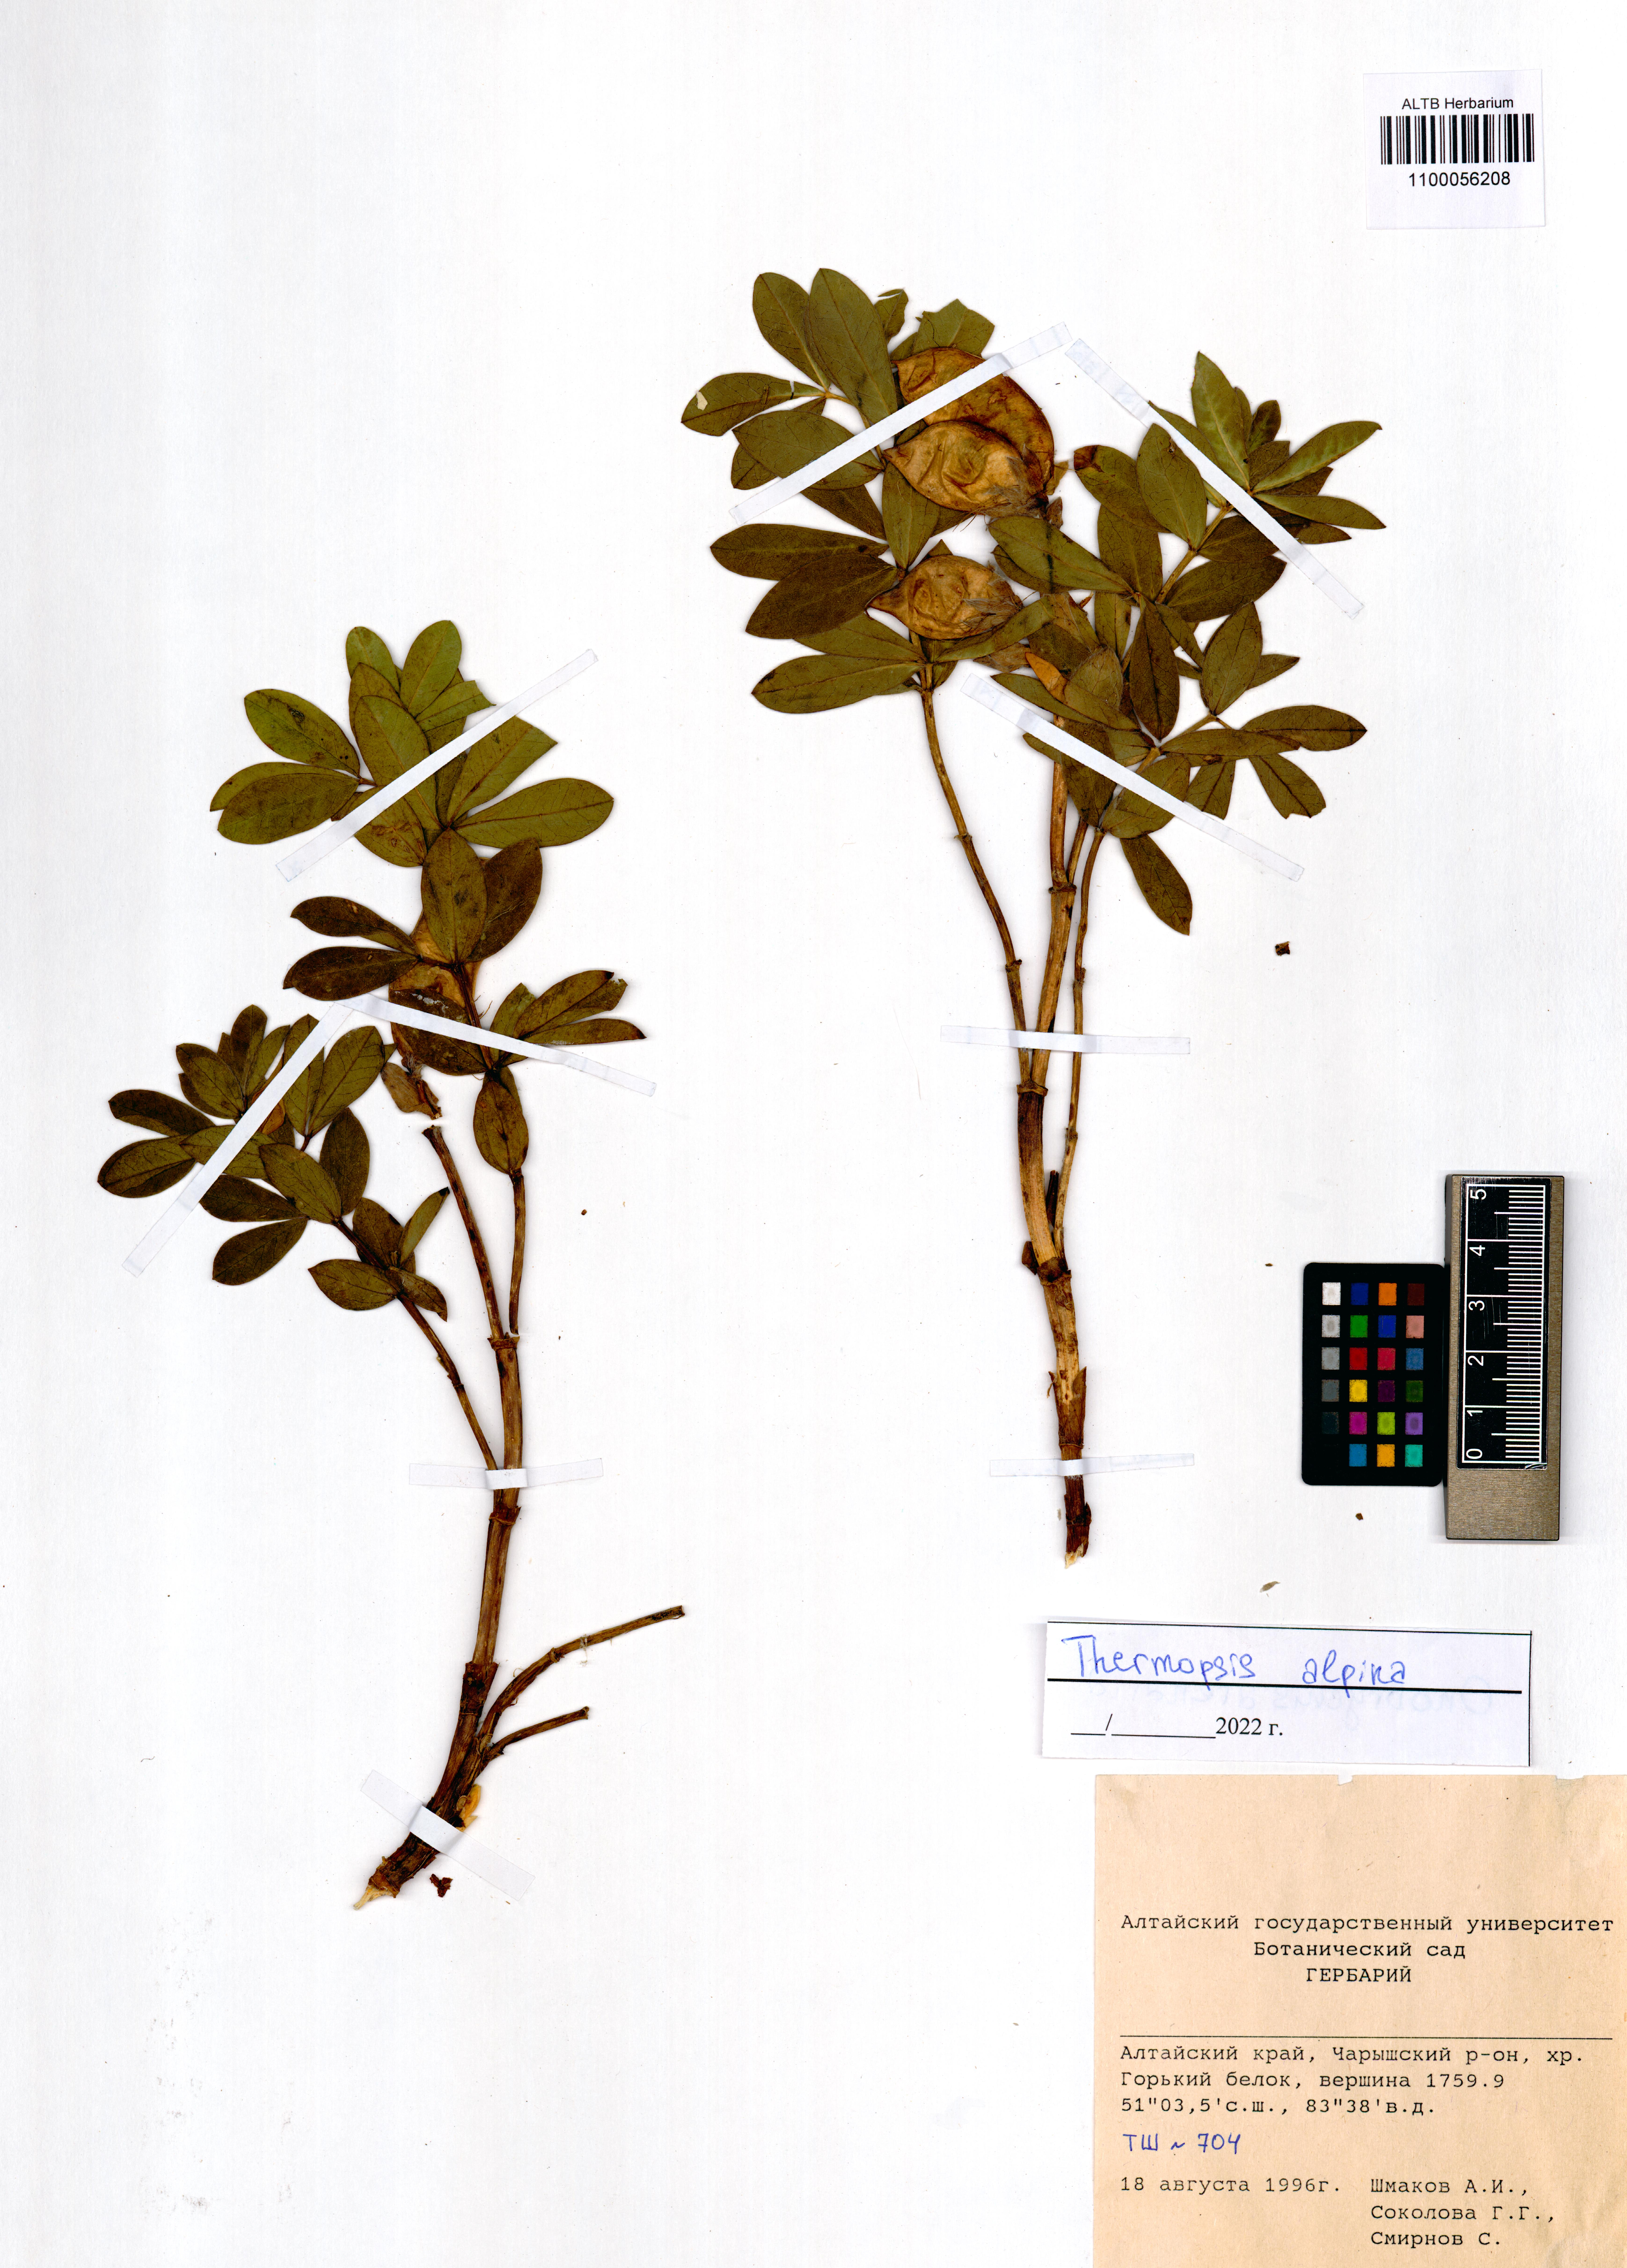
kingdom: Plantae
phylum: Tracheophyta
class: Magnoliopsida
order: Fabales
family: Fabaceae
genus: Thermopsis
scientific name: Thermopsis alpina
